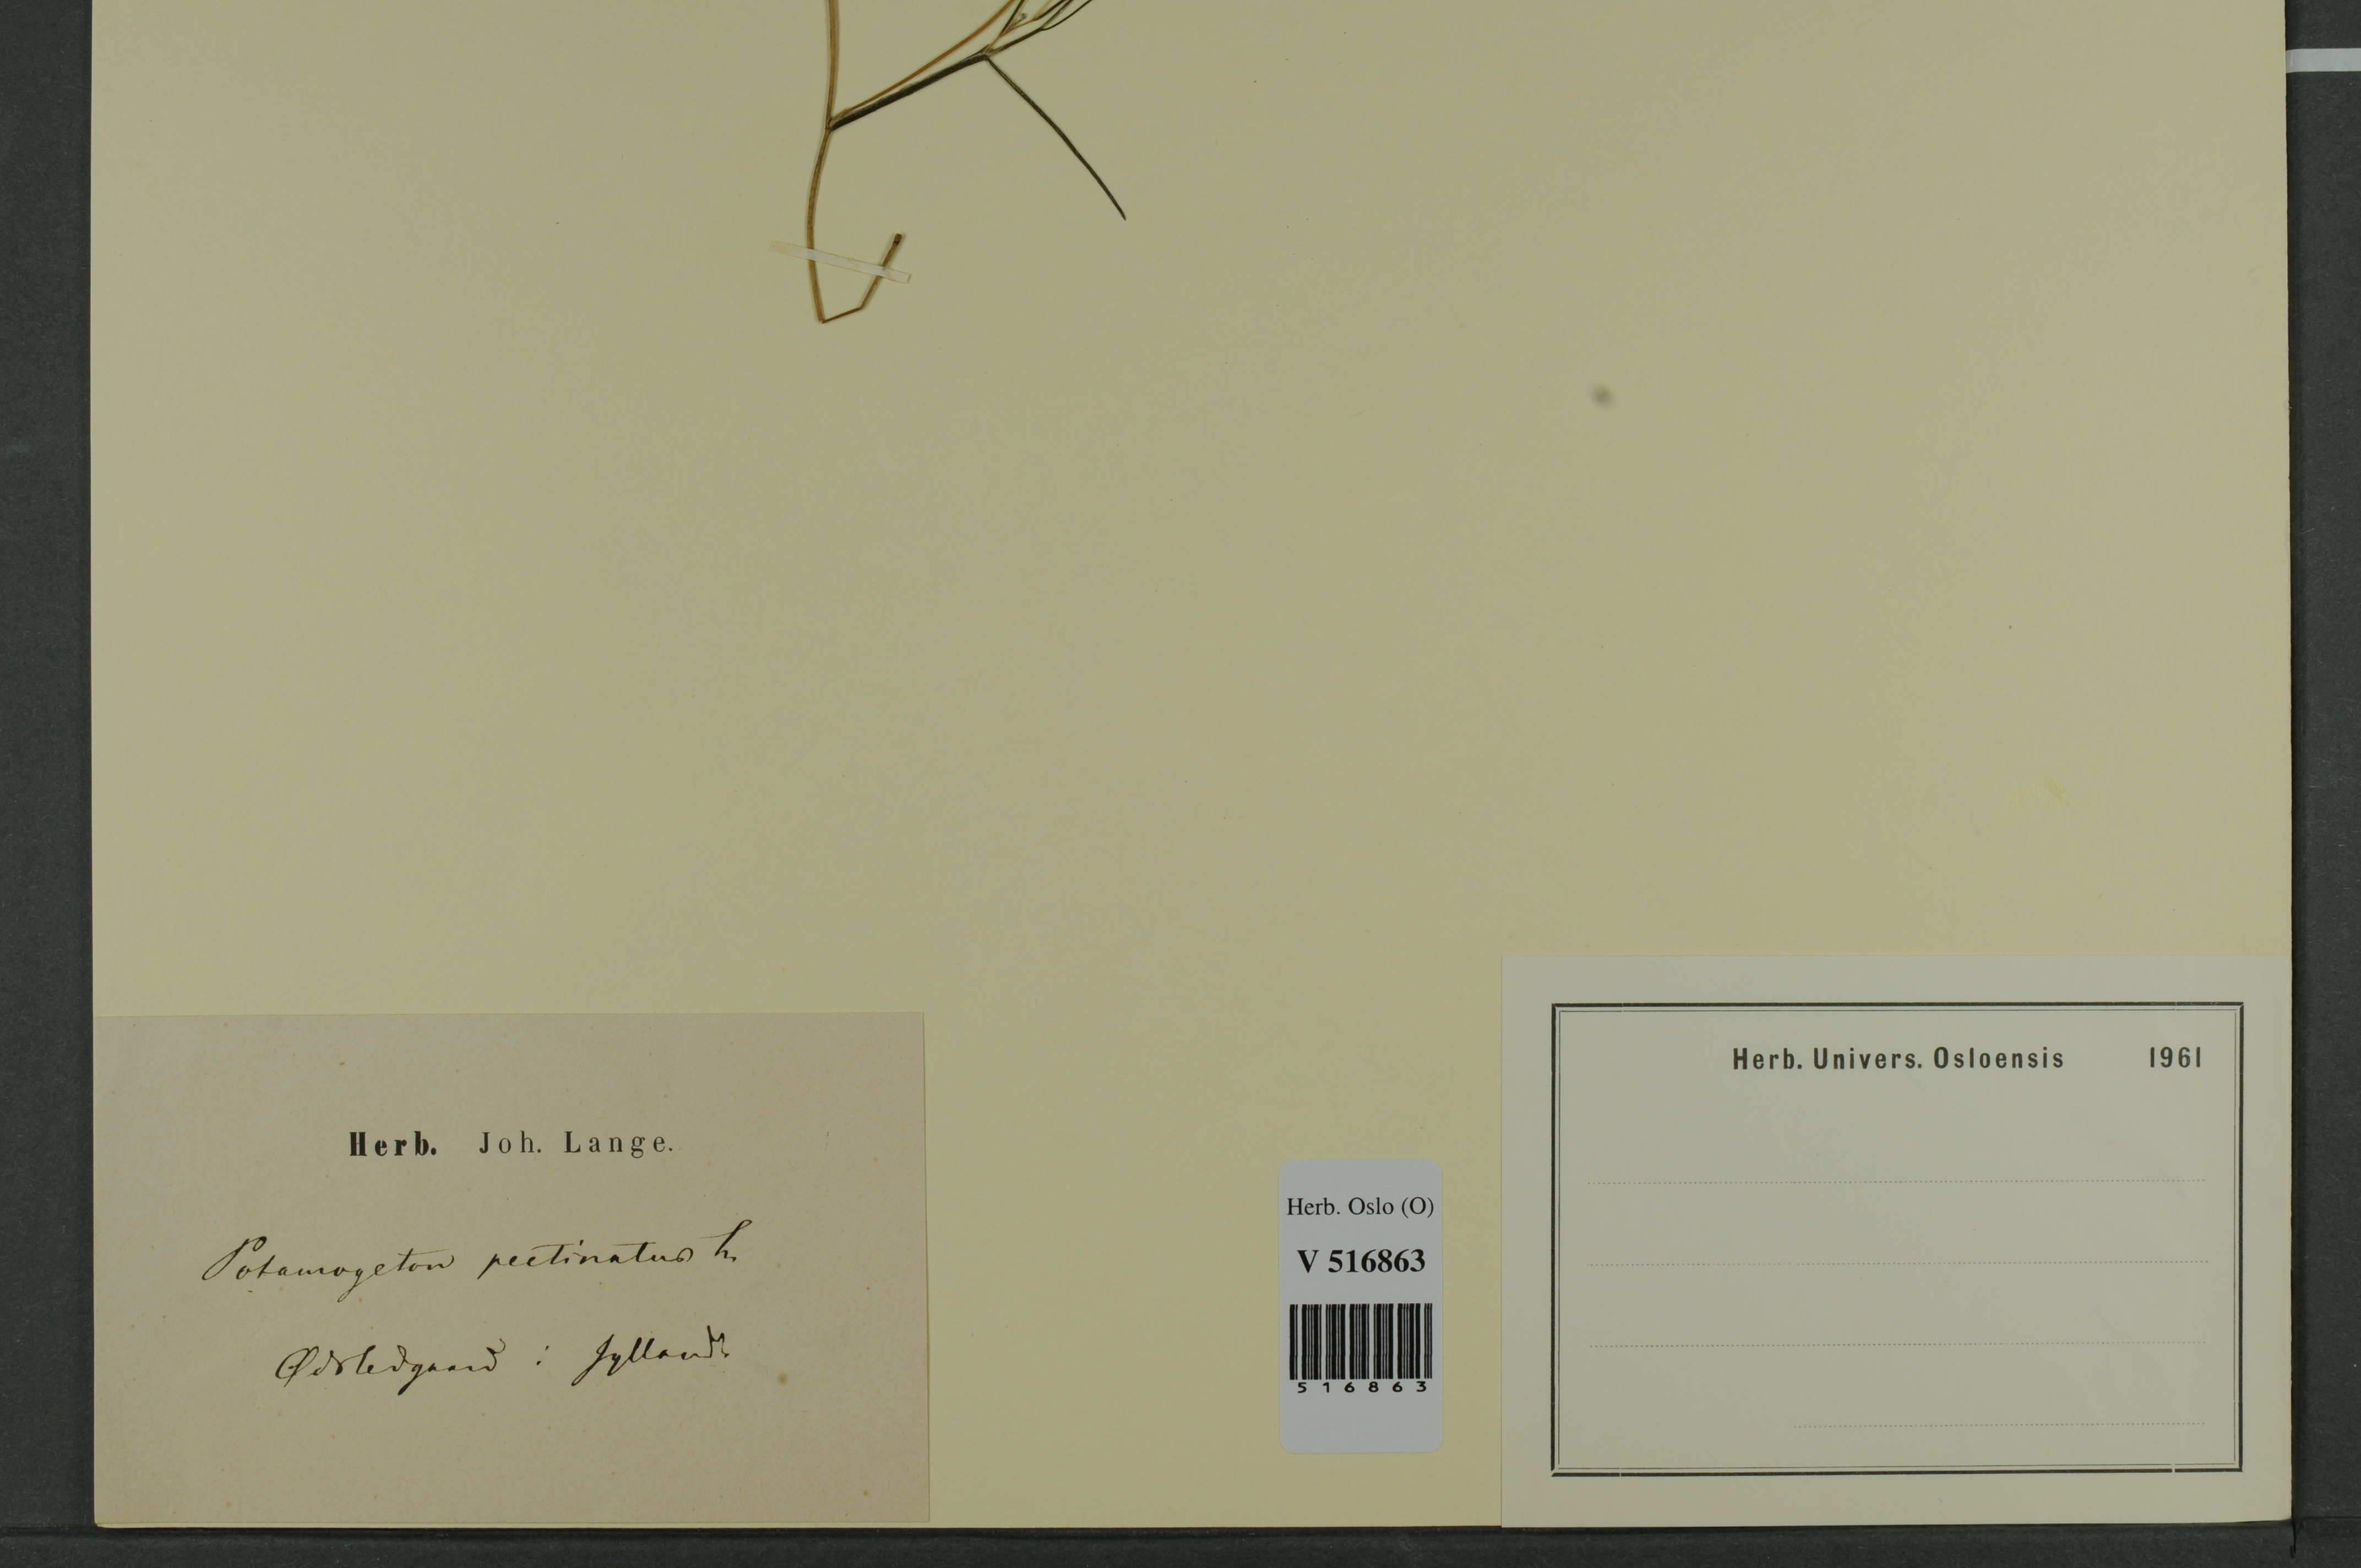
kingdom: Plantae
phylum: Tracheophyta
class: Liliopsida
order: Alismatales
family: Potamogetonaceae
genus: Stuckenia
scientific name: Stuckenia pectinata
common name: Sago pondweed
